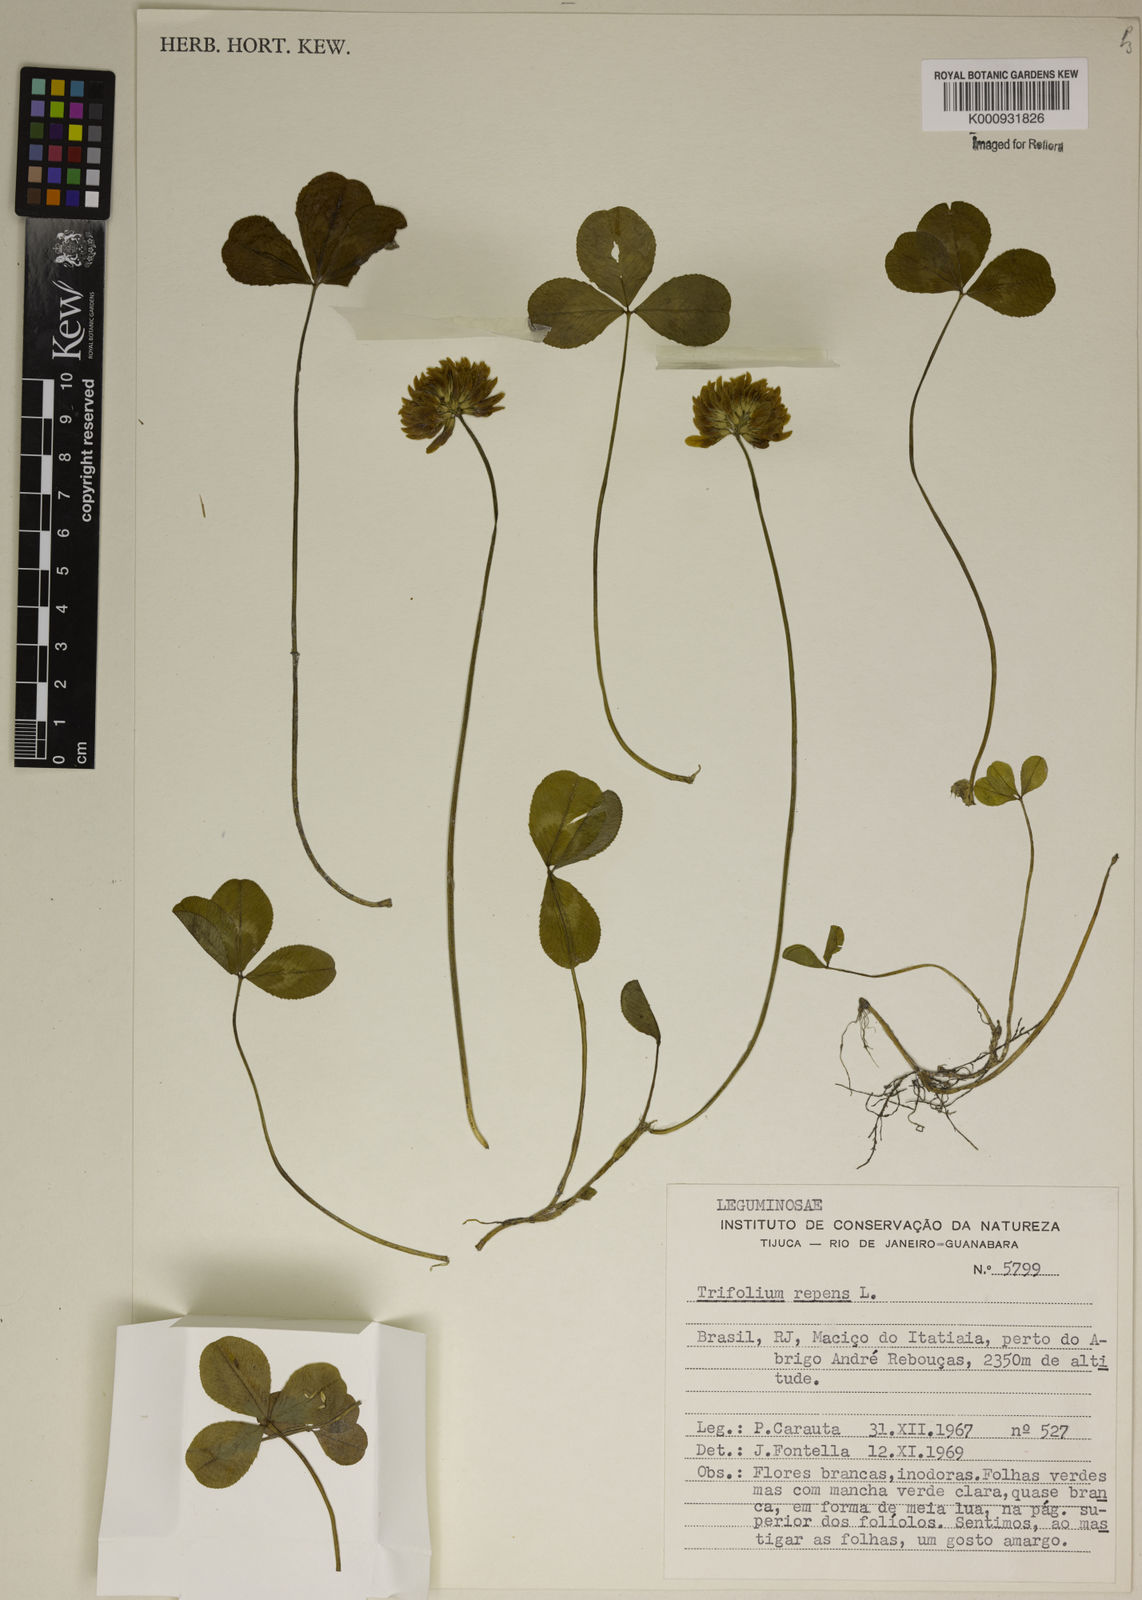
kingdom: Plantae
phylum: Tracheophyta
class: Magnoliopsida
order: Fabales
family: Fabaceae
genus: Trifolium
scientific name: Trifolium
